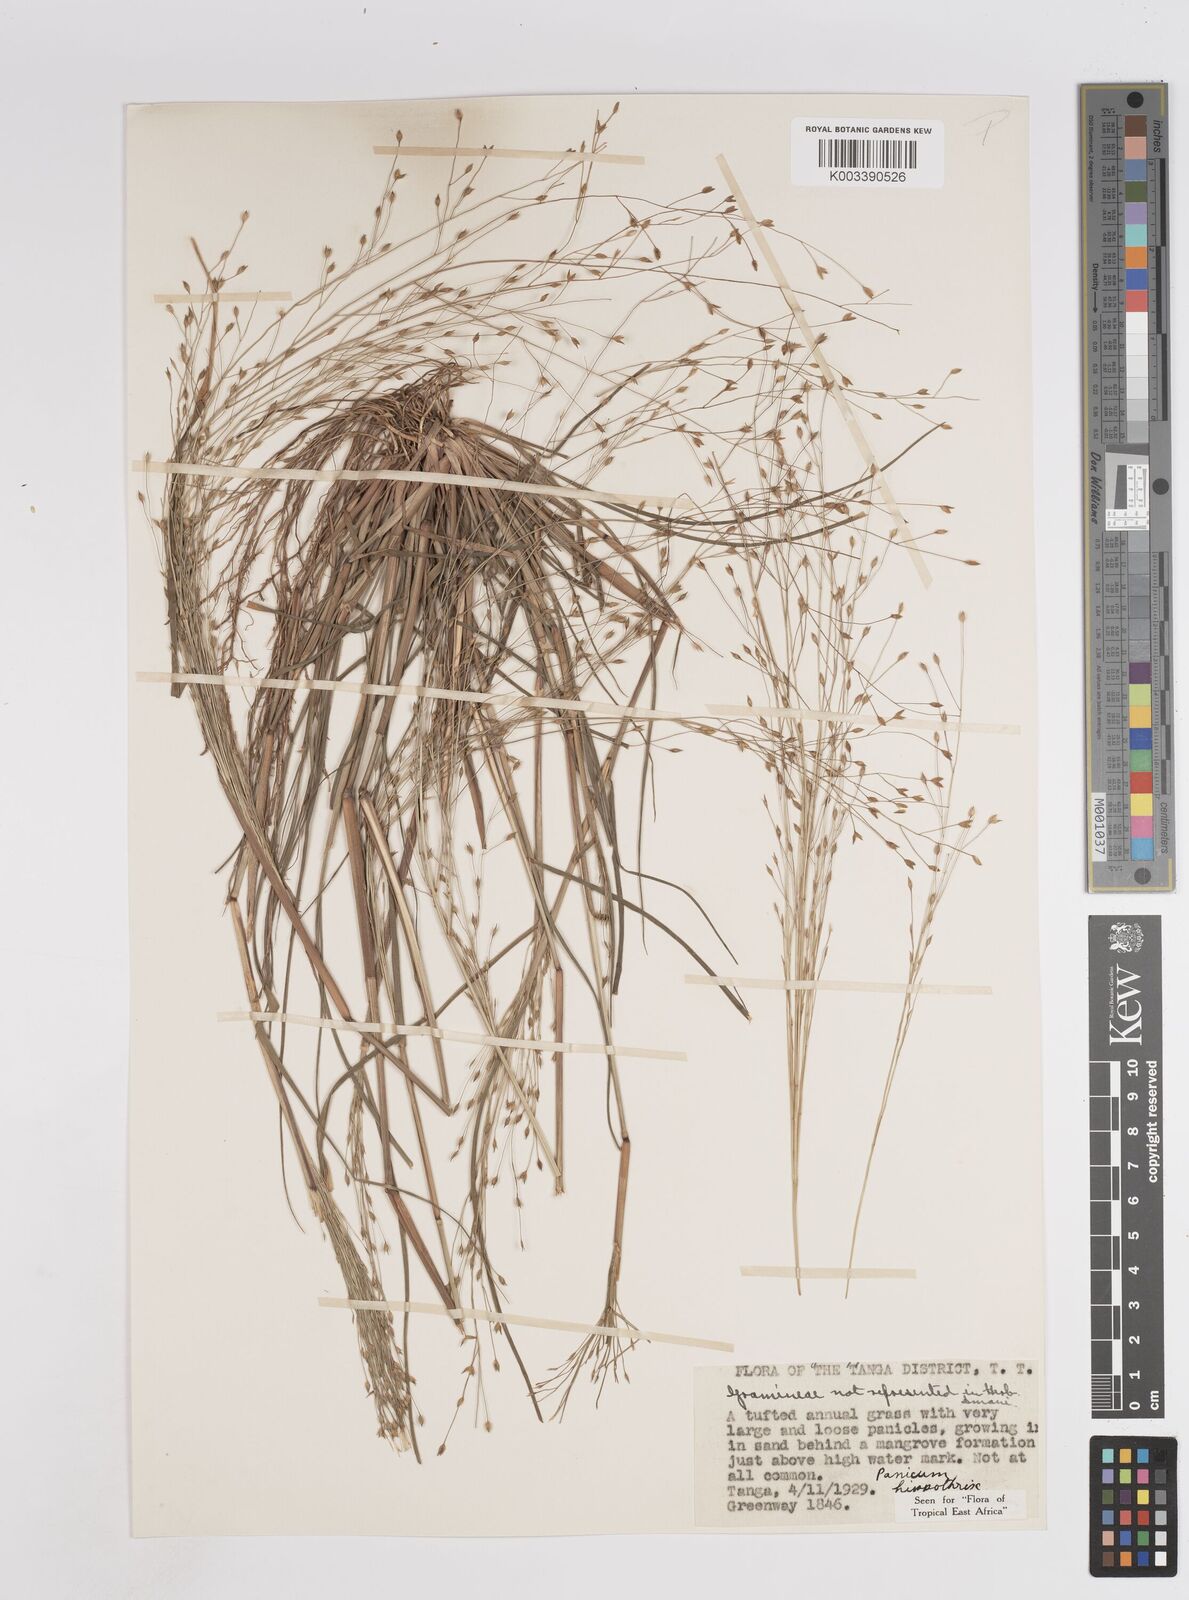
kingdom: Plantae
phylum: Tracheophyta
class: Liliopsida
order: Poales
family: Poaceae
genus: Panicum
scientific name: Panicum hippothrix
